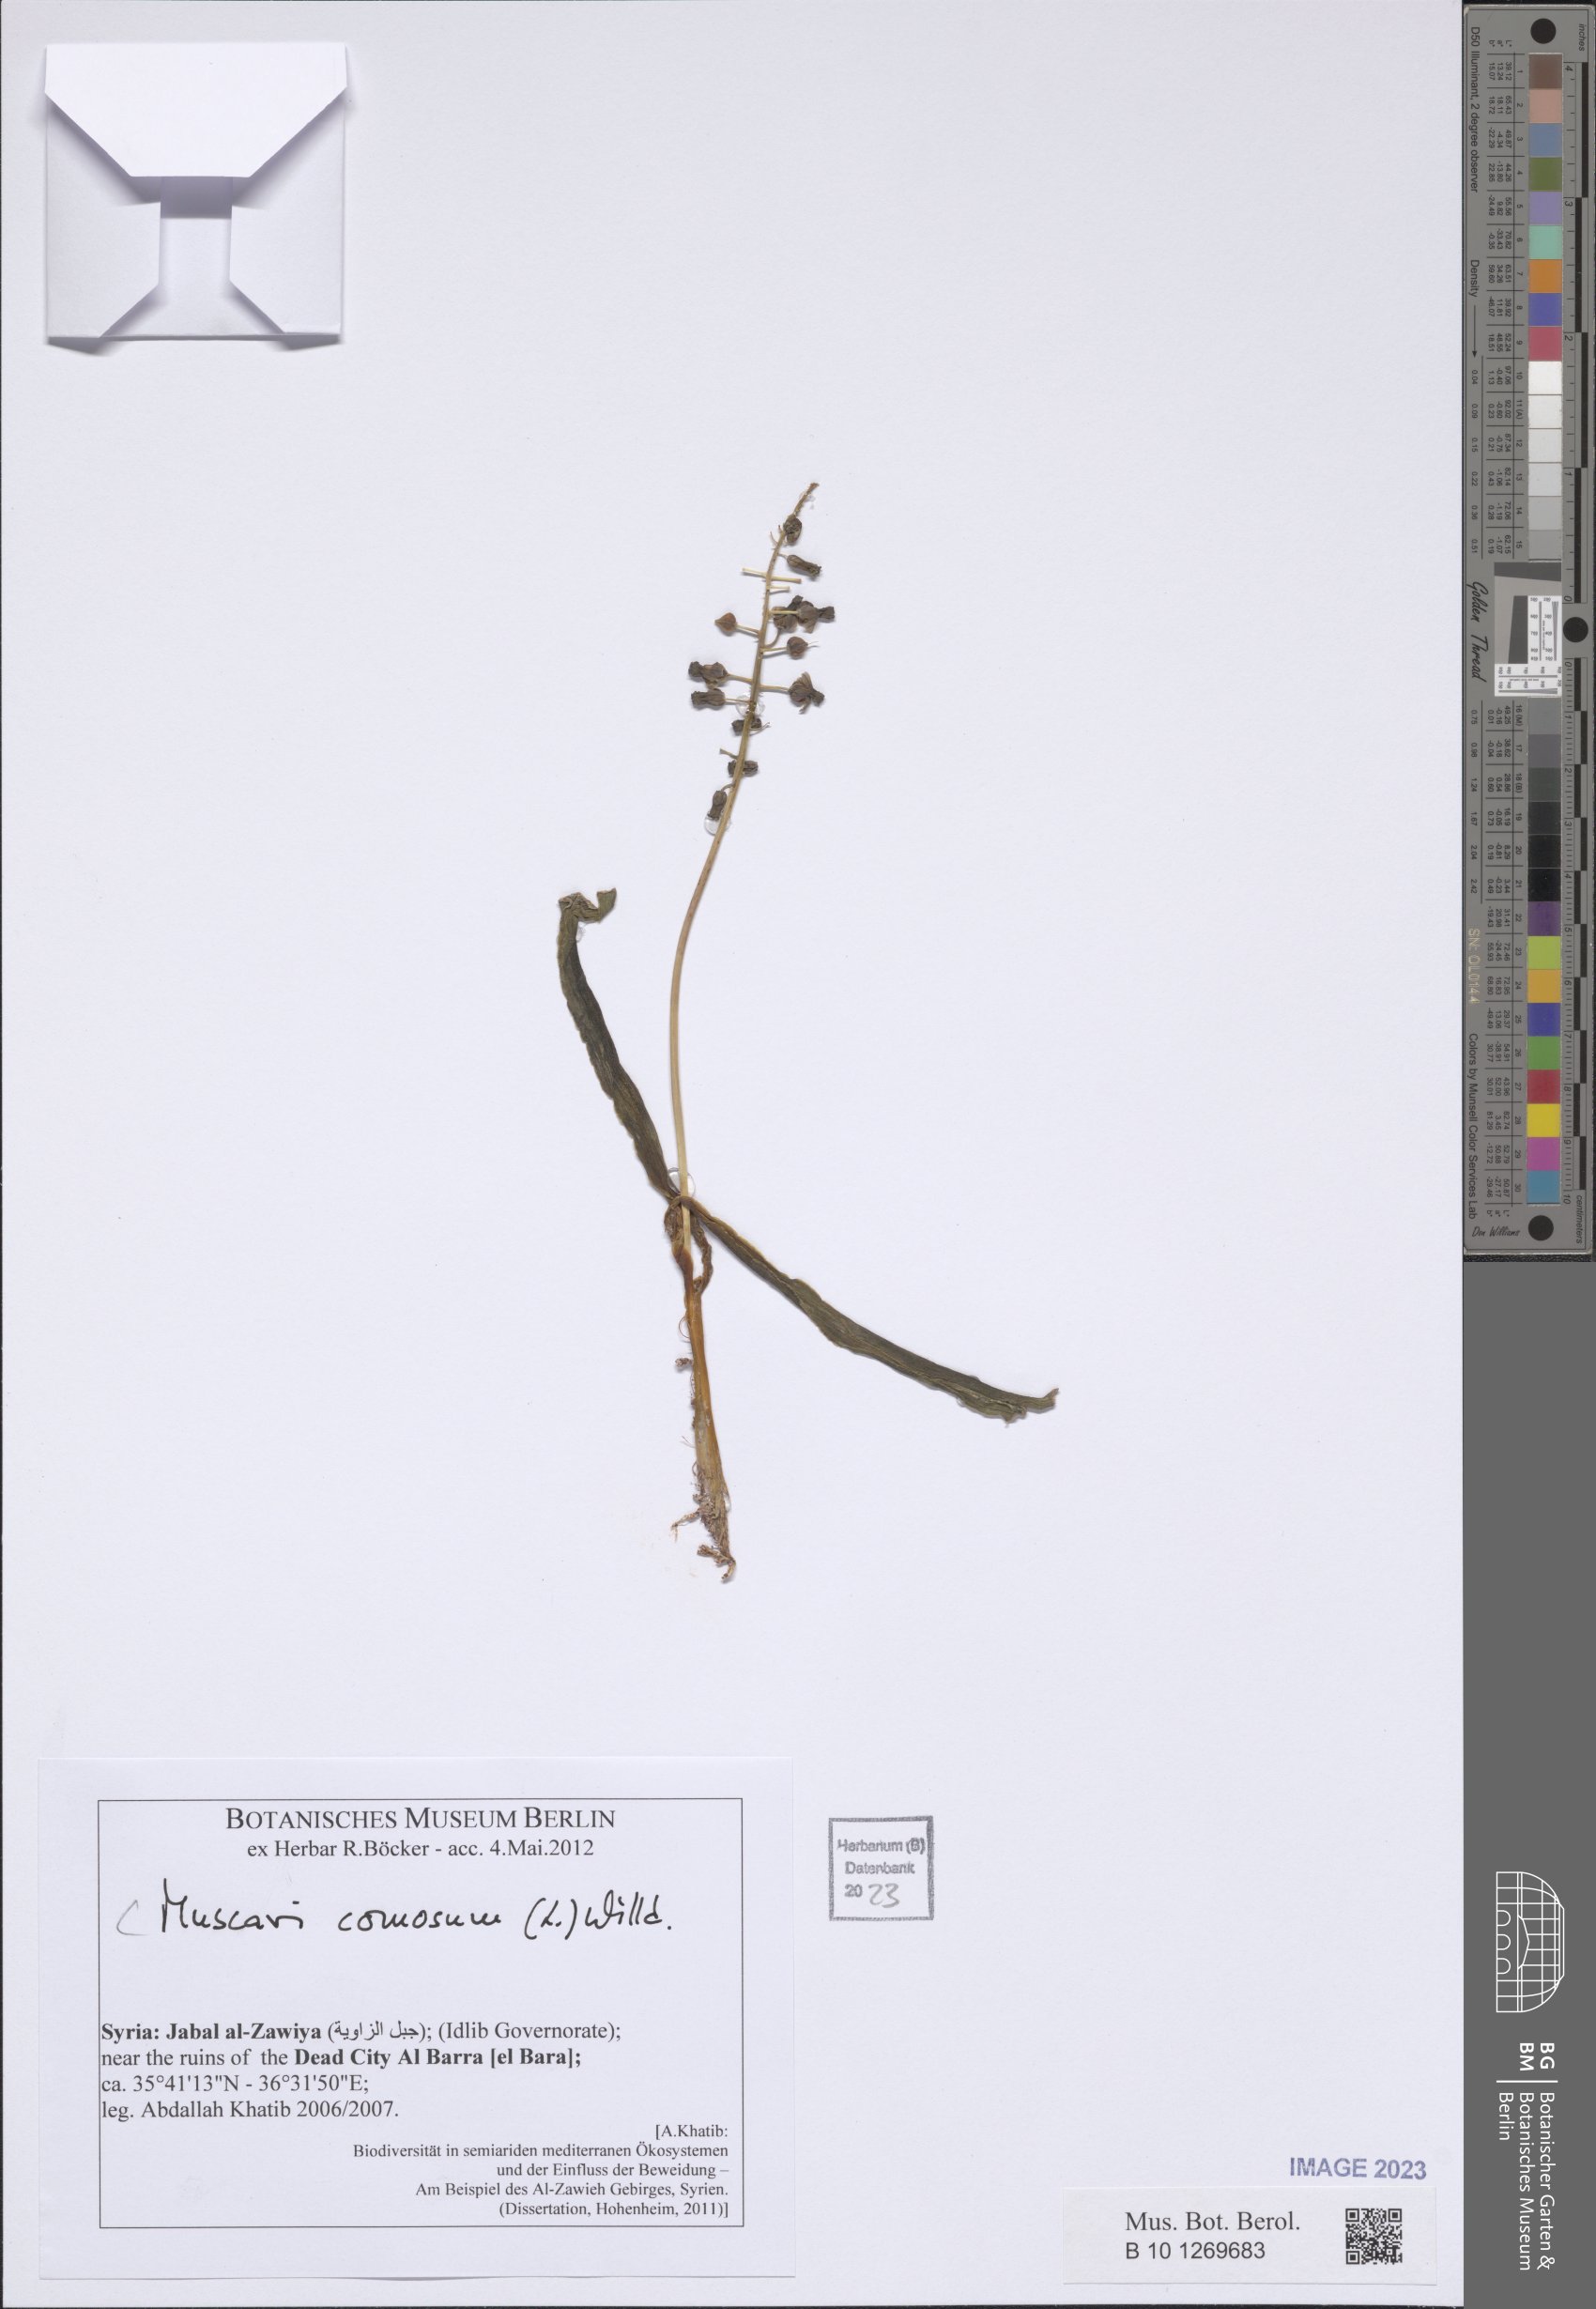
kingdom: Plantae
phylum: Tracheophyta
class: Liliopsida
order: Asparagales
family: Asparagaceae
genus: Muscari
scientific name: Muscari comosum
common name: Tassel hyacinth
